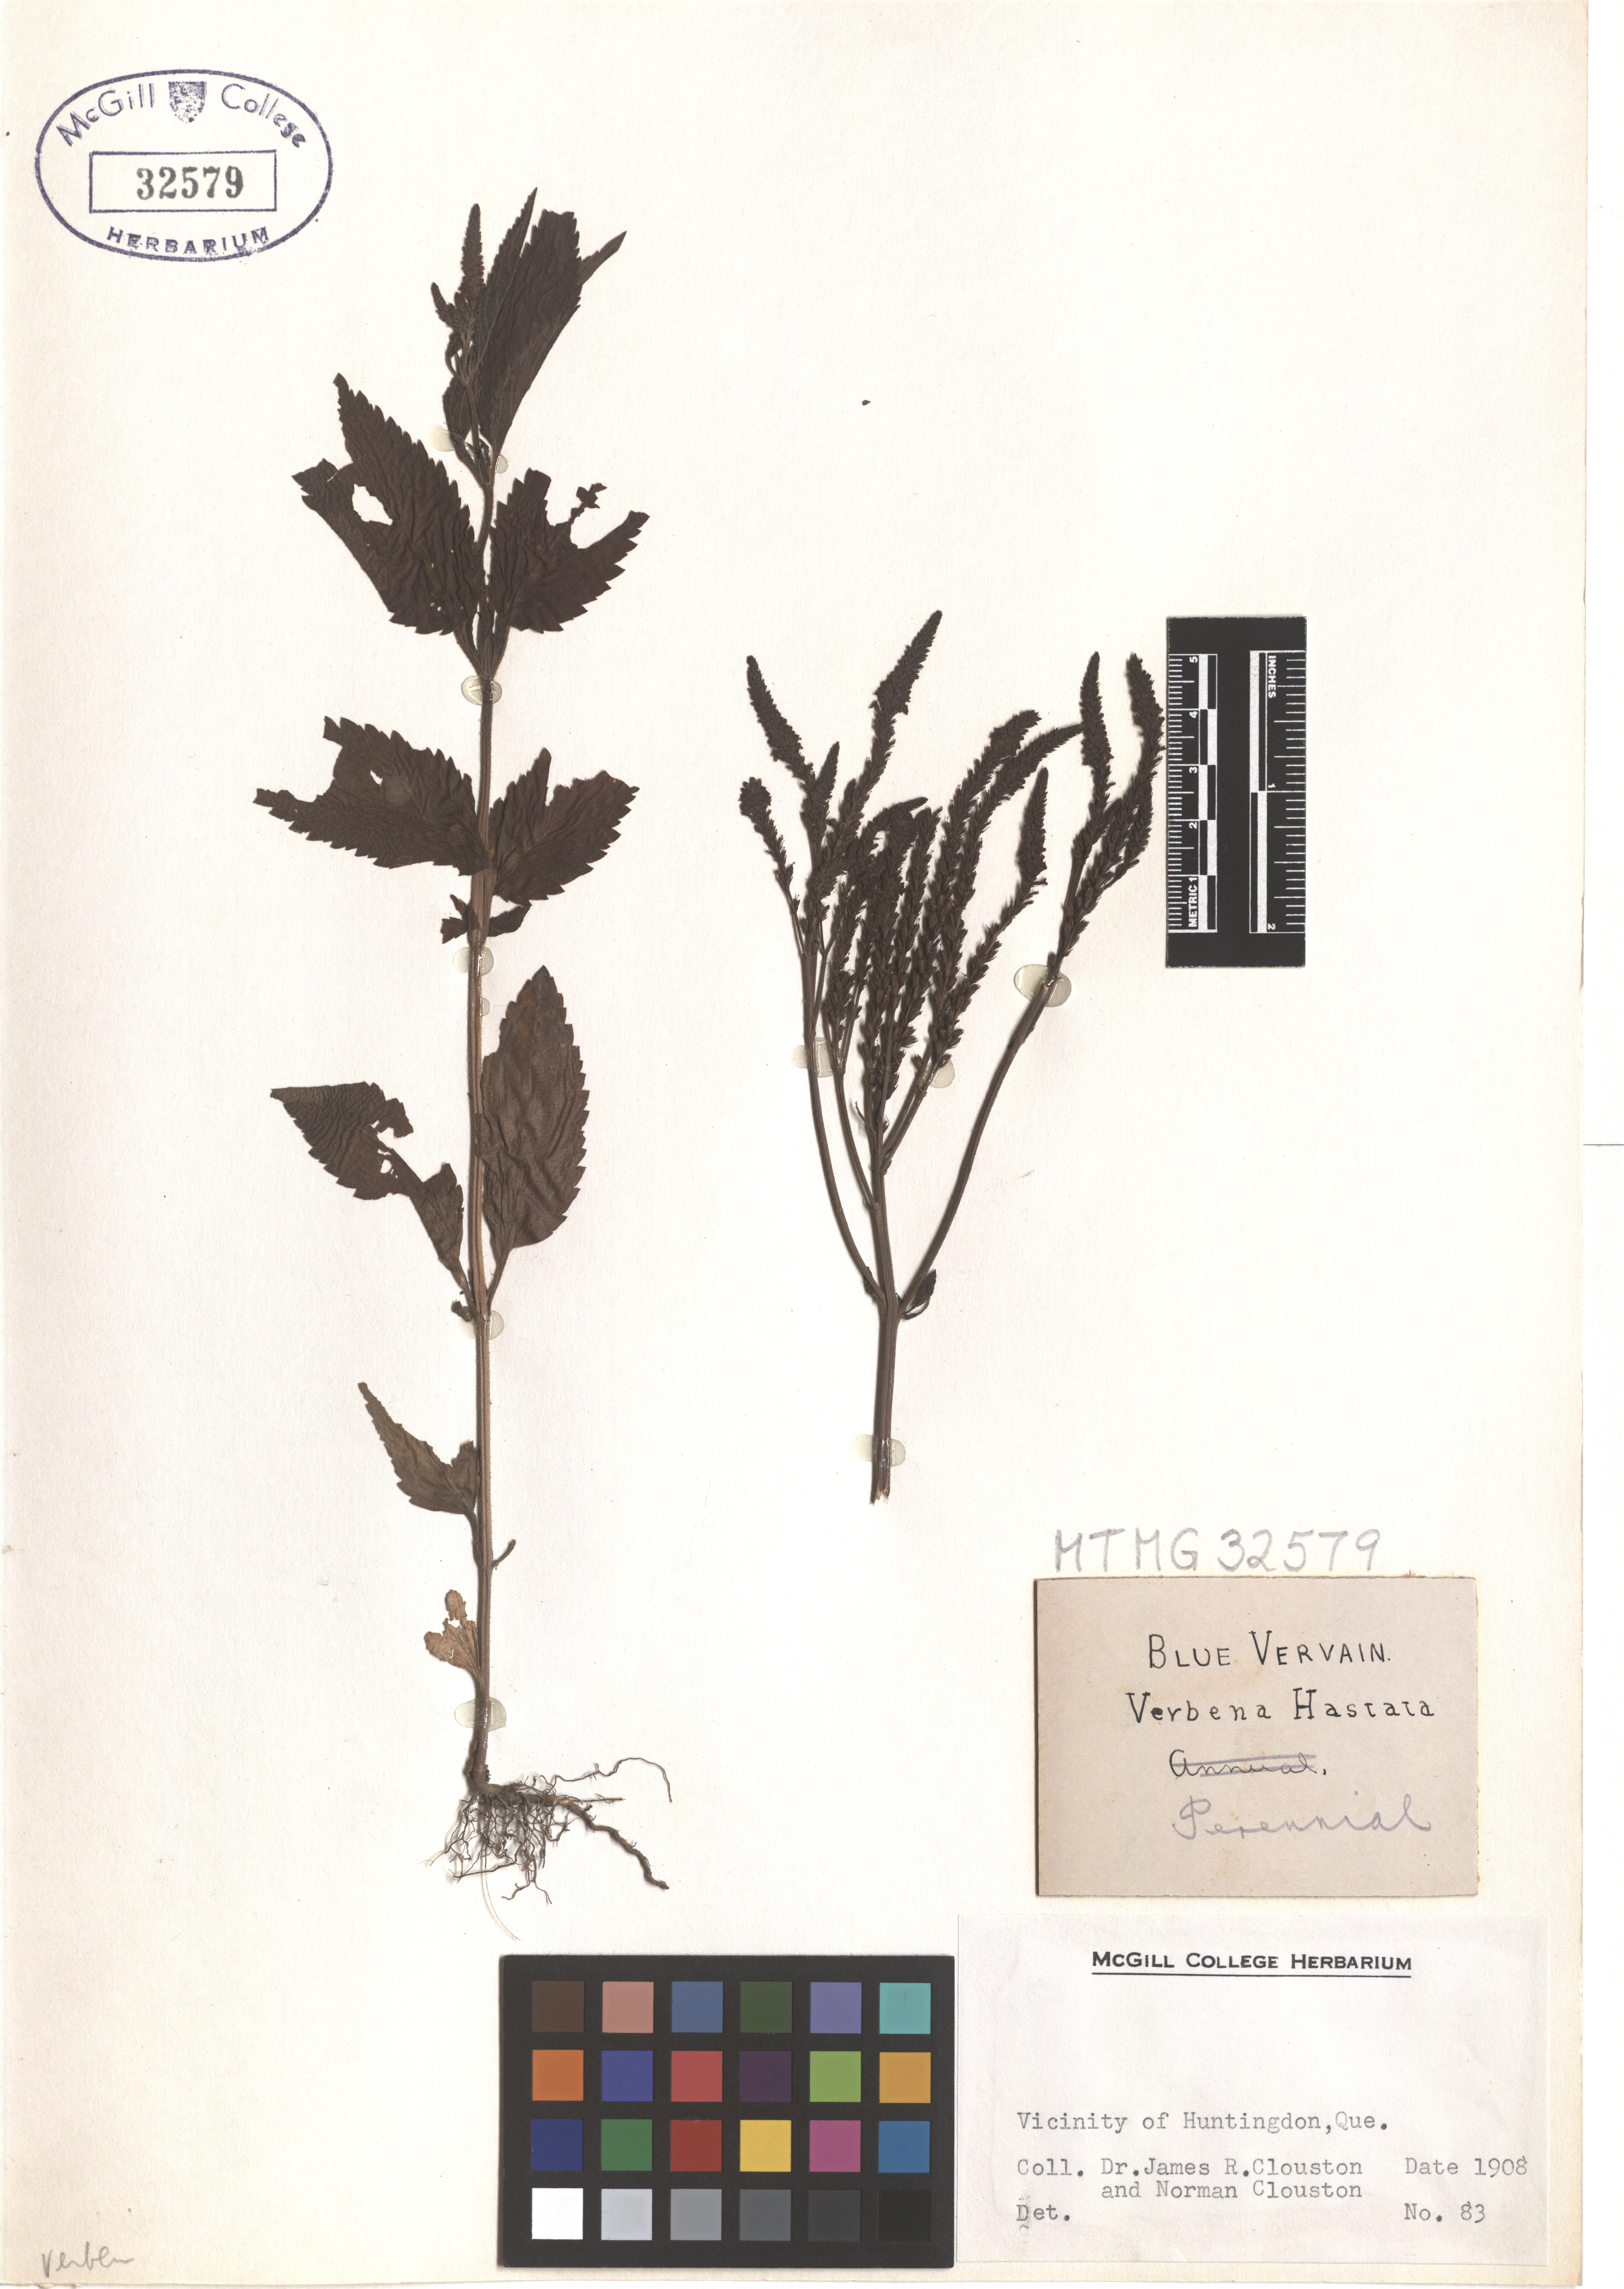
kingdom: Plantae
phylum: Tracheophyta
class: Magnoliopsida
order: Lamiales
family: Verbenaceae
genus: Verbena
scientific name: Verbena hastata
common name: American blue vervain
